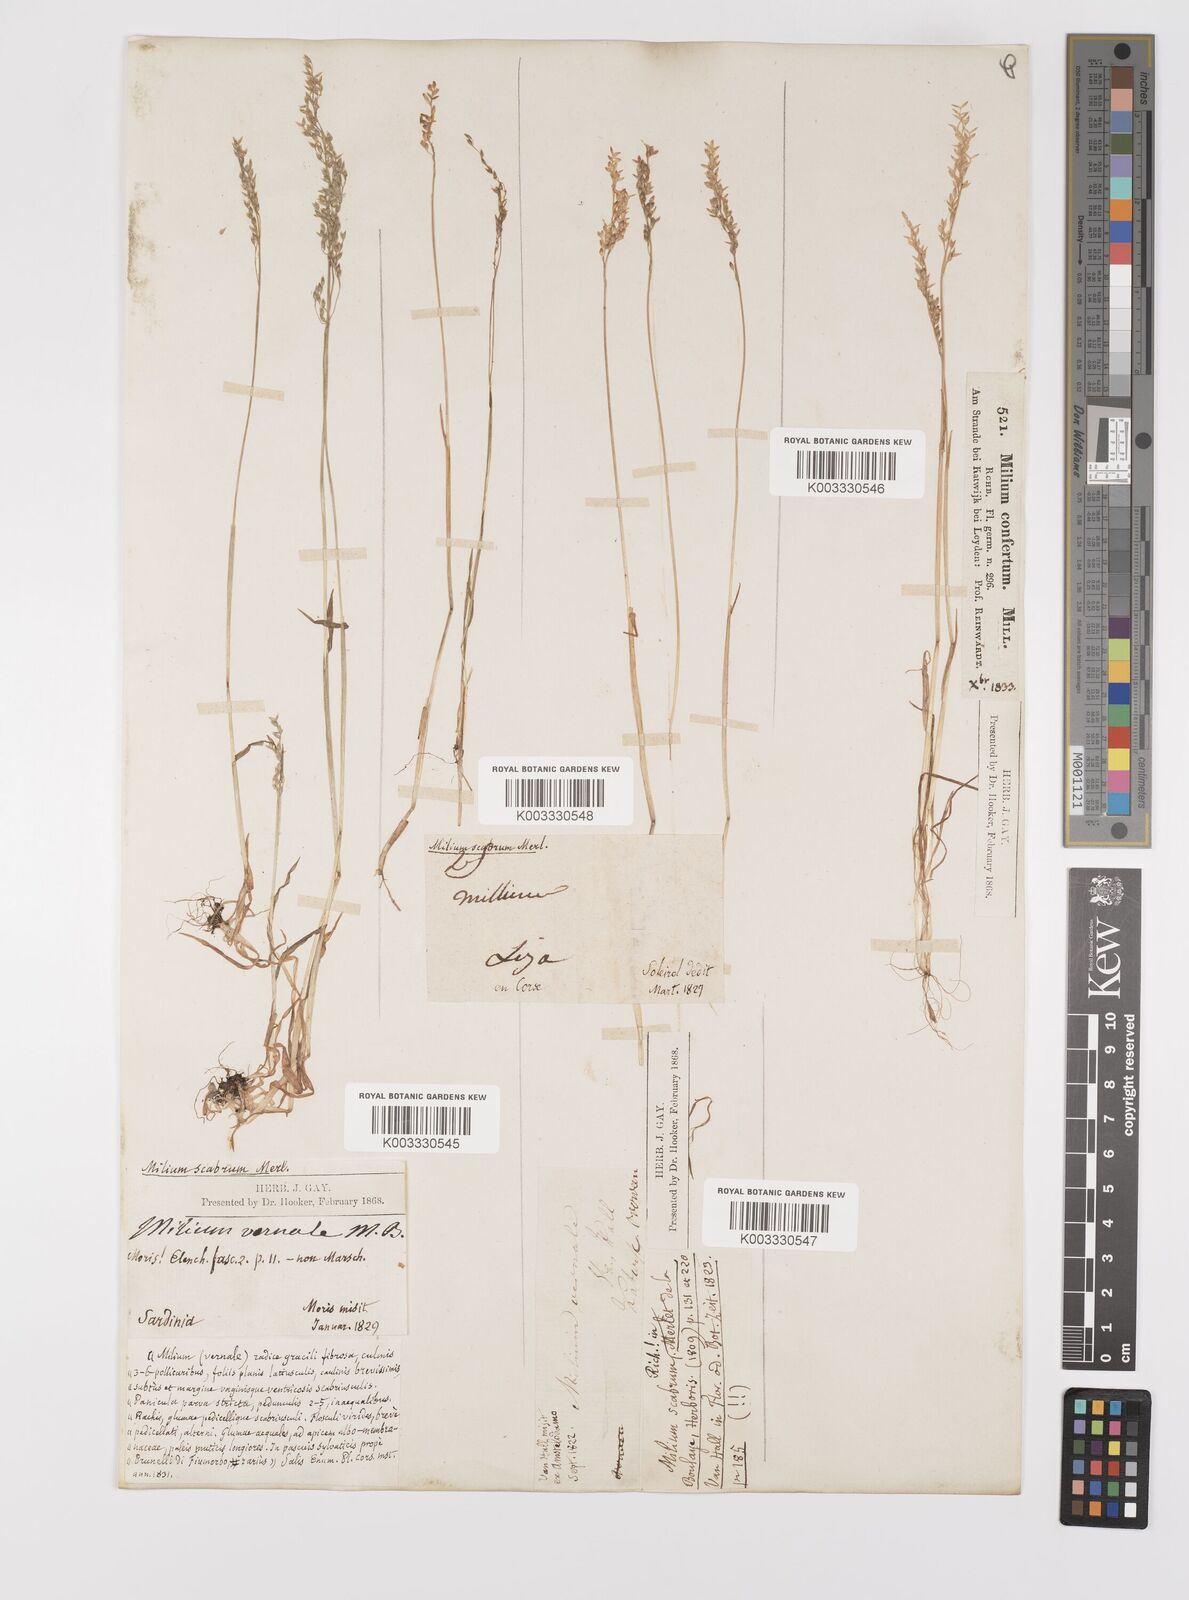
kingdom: Plantae
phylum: Tracheophyta
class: Liliopsida
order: Poales
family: Poaceae
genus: Milium
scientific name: Milium vernale
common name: Early millet
